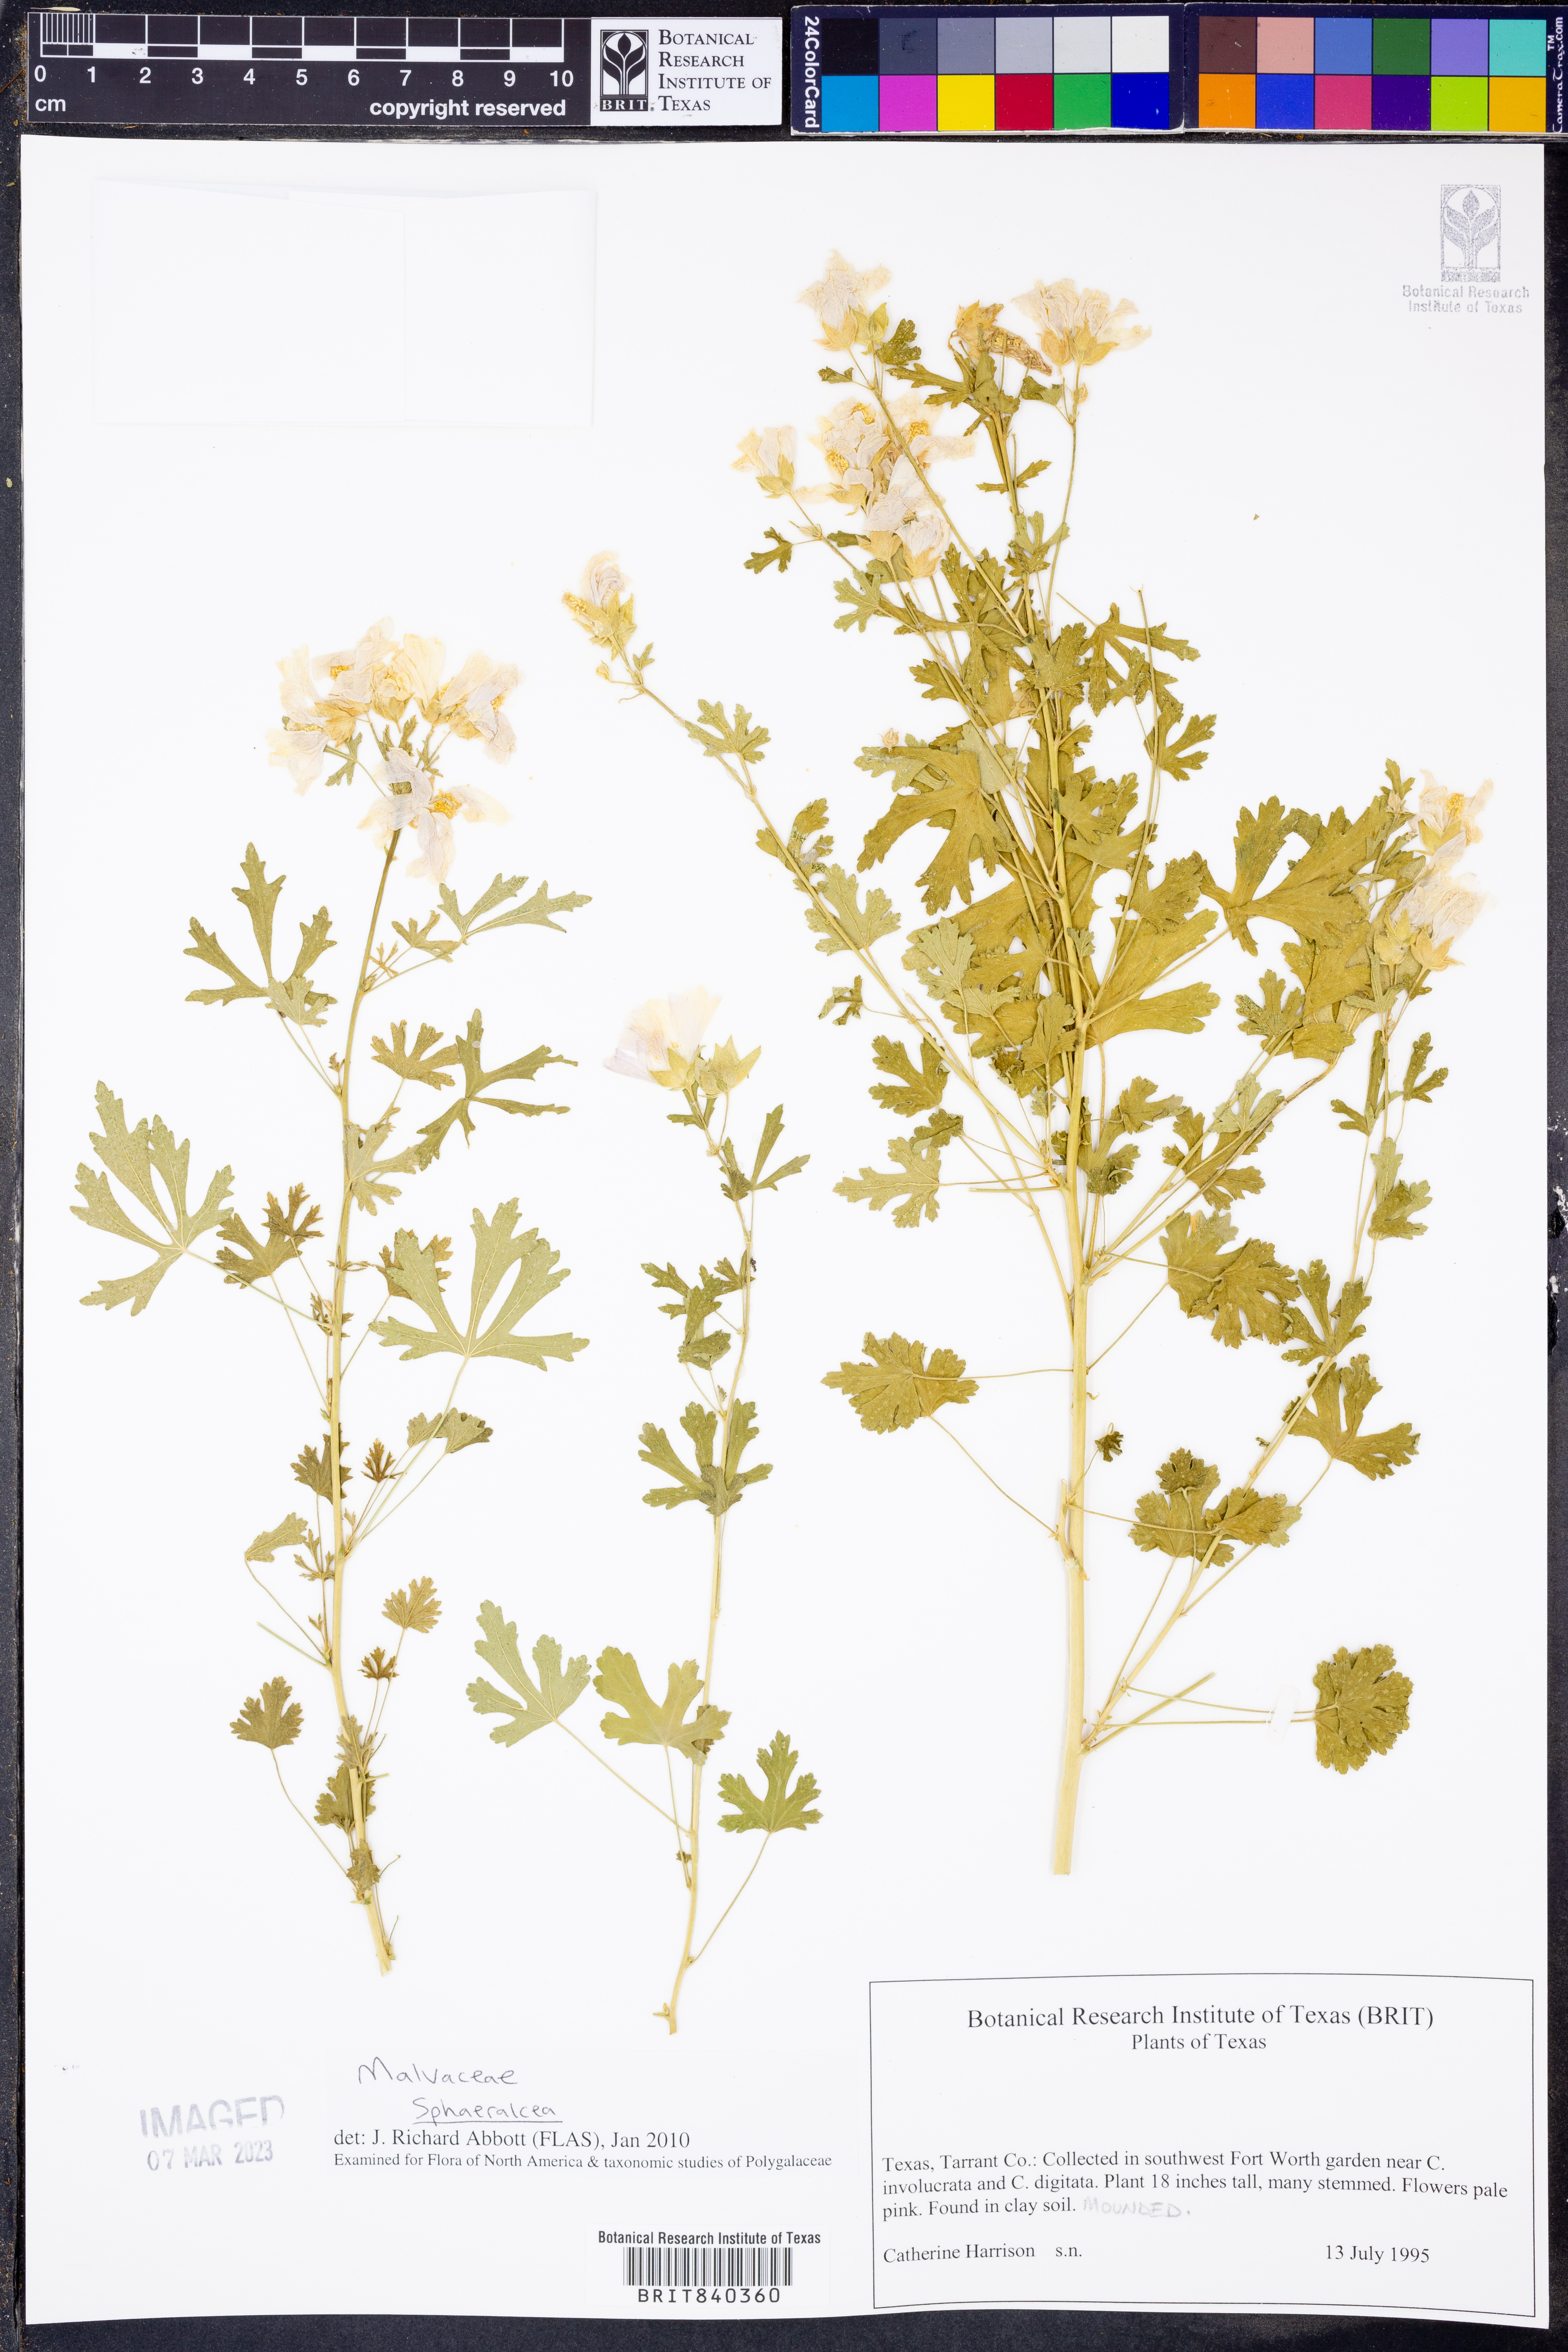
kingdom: Plantae
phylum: Tracheophyta
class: Magnoliopsida
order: Malvales
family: Malvaceae
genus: Sphaeralcea
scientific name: Sphaeralcea
